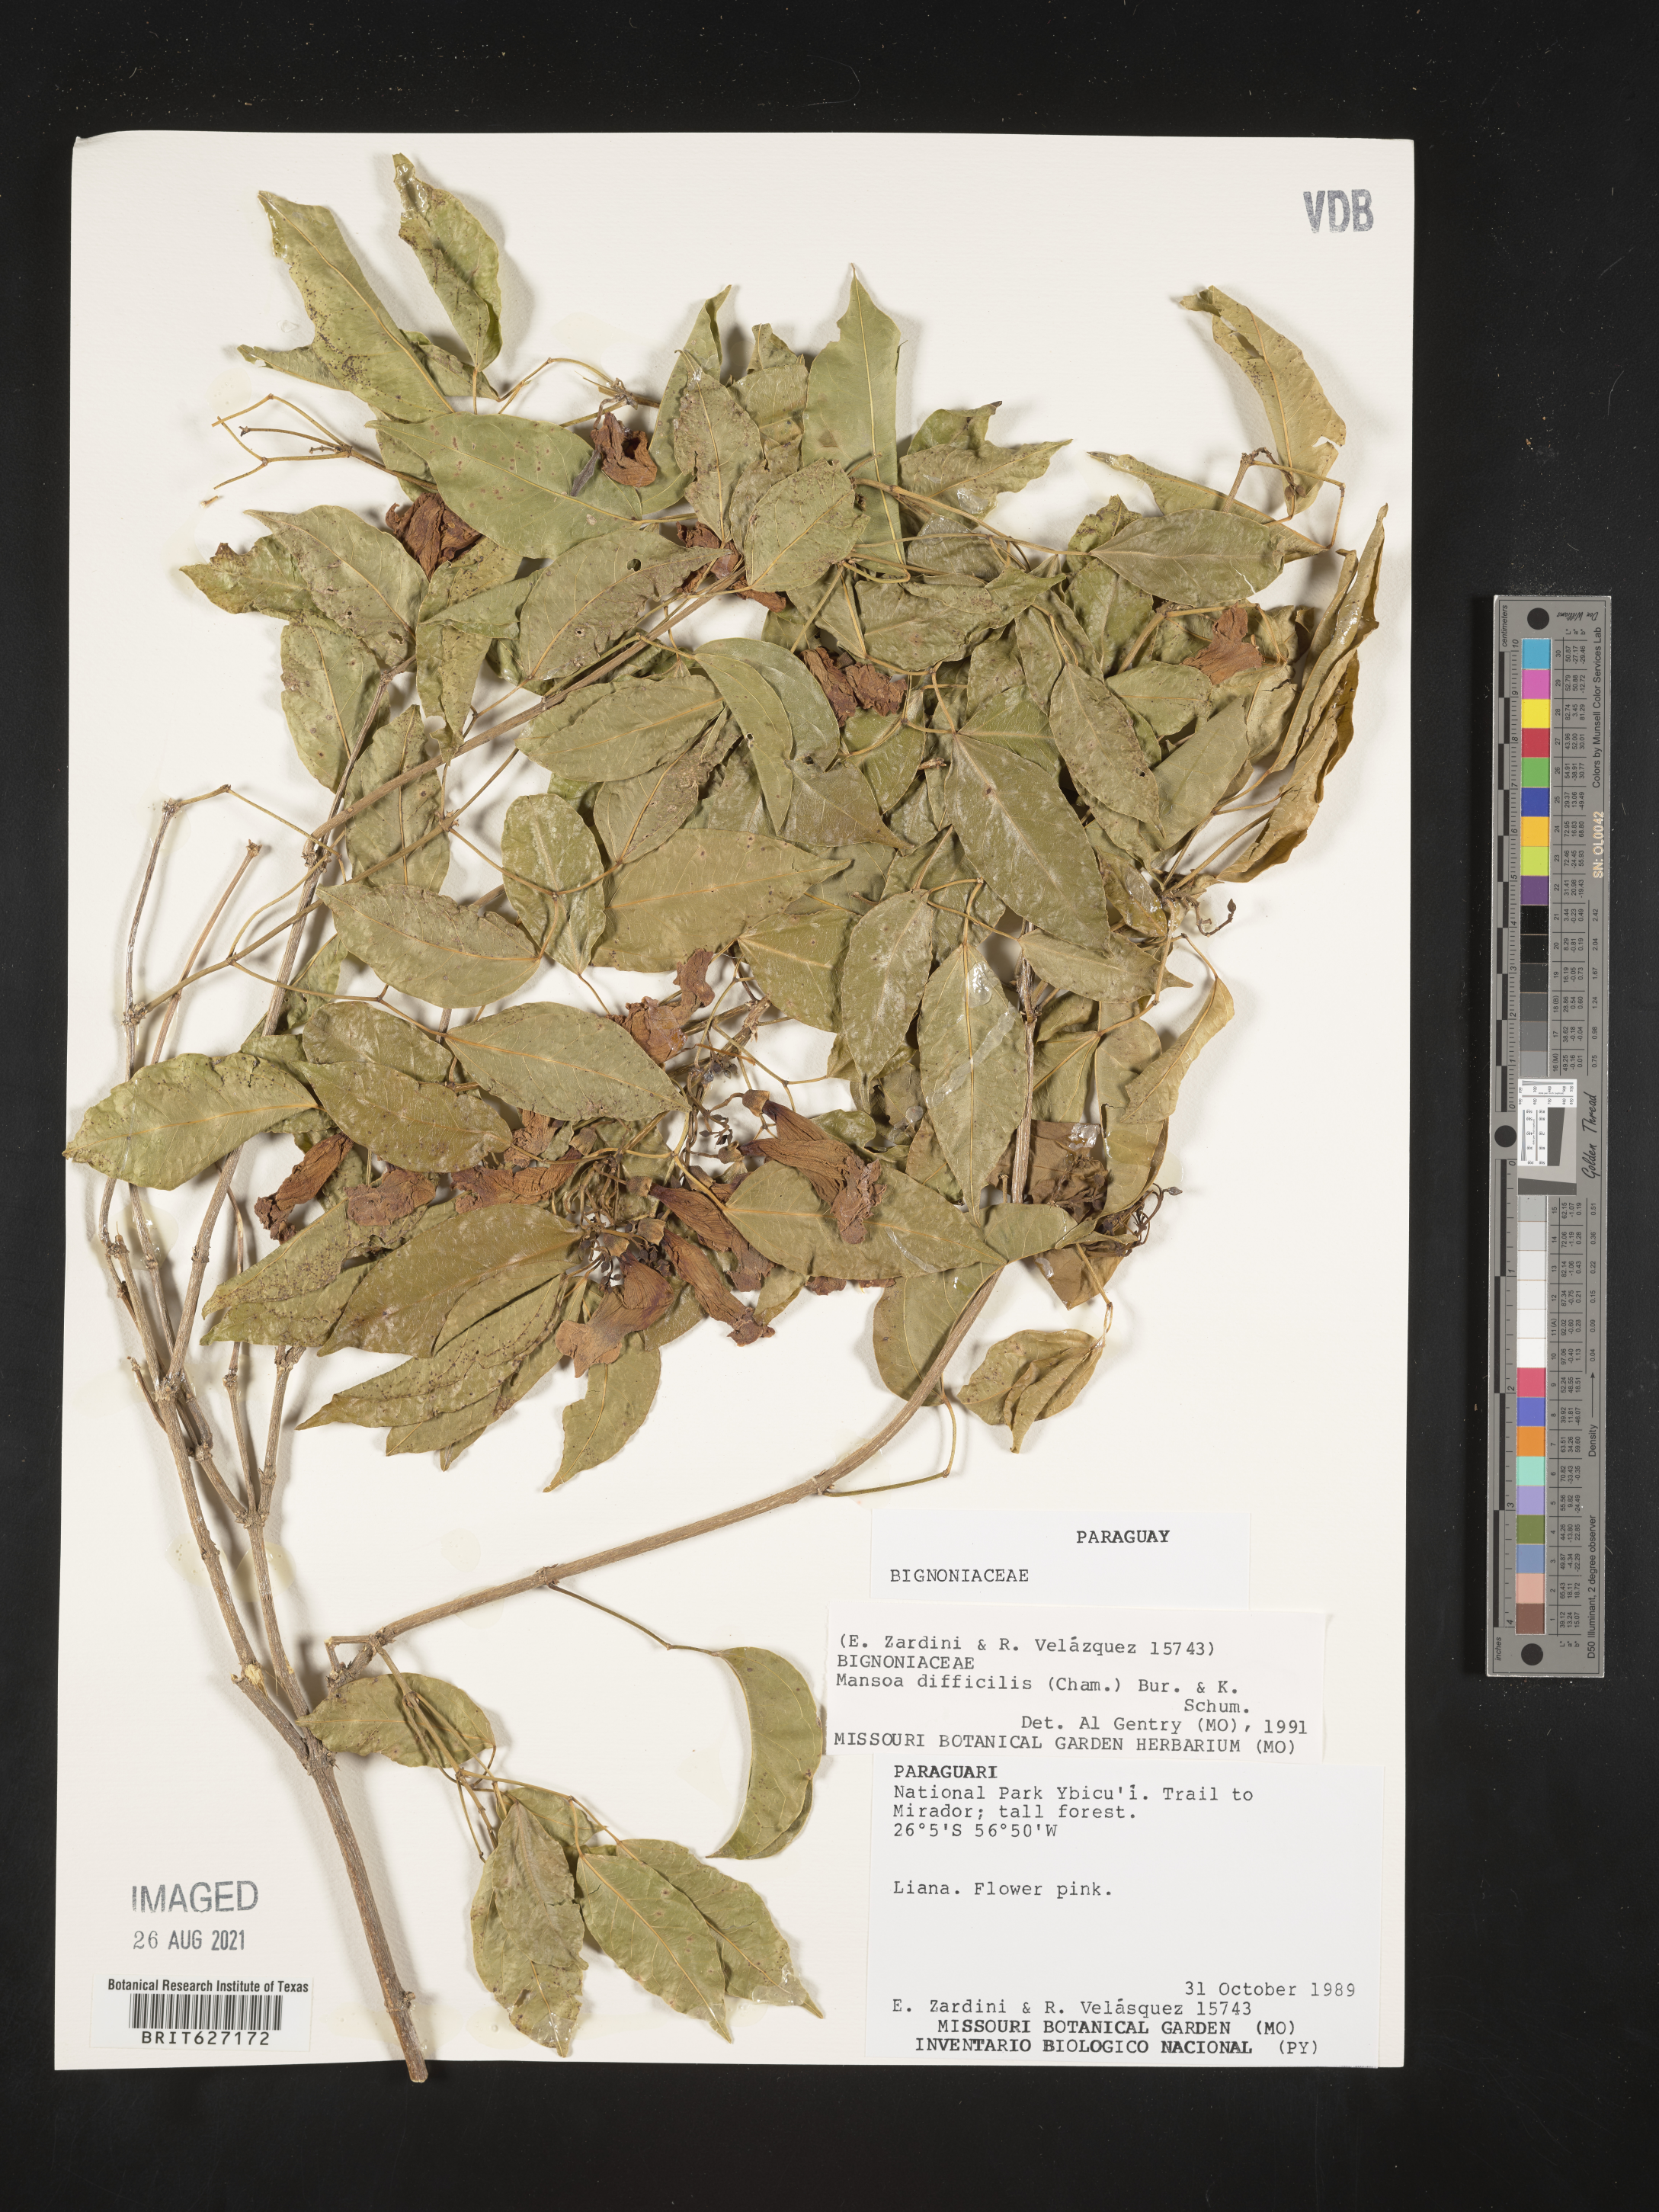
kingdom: Plantae
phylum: Tracheophyta
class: Magnoliopsida
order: Lamiales
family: Bignoniaceae
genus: Mansoa
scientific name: Mansoa difficilis
